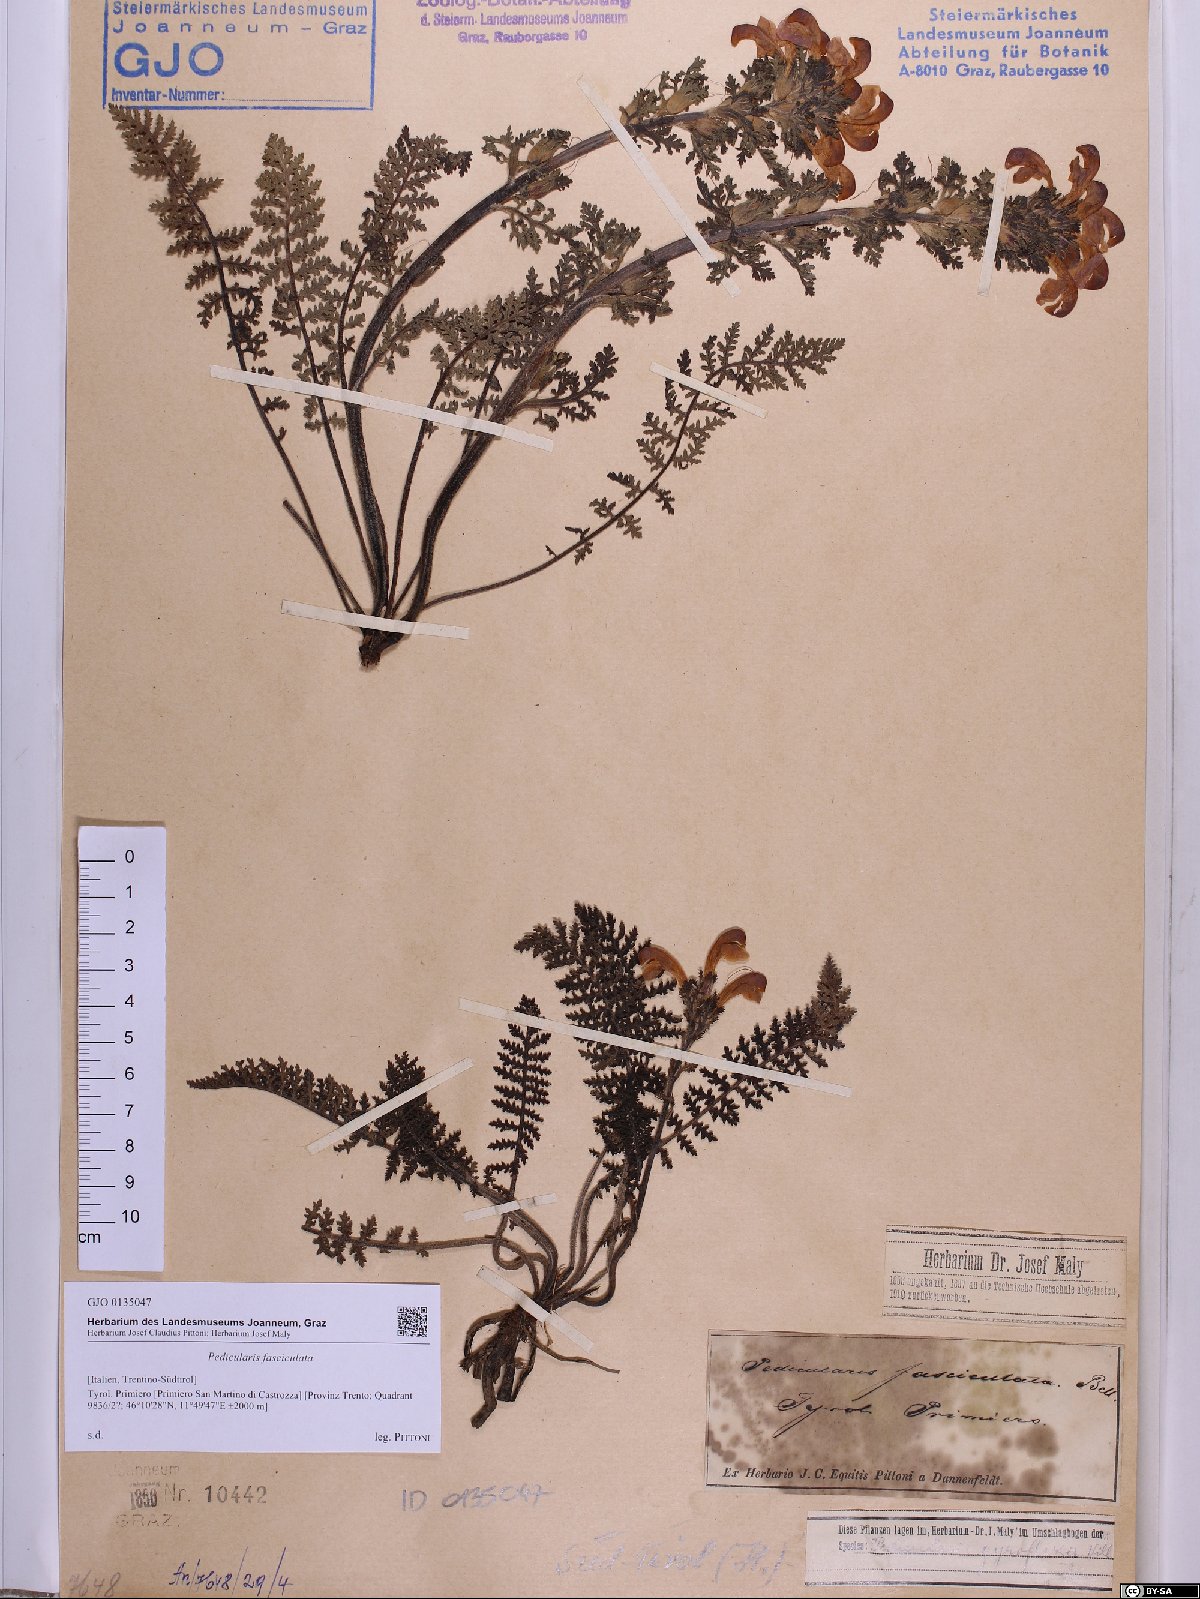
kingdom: Plantae
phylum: Tracheophyta
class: Magnoliopsida
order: Lamiales
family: Orobanchaceae
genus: Pedicularis
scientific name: Pedicularis gyroflexa
